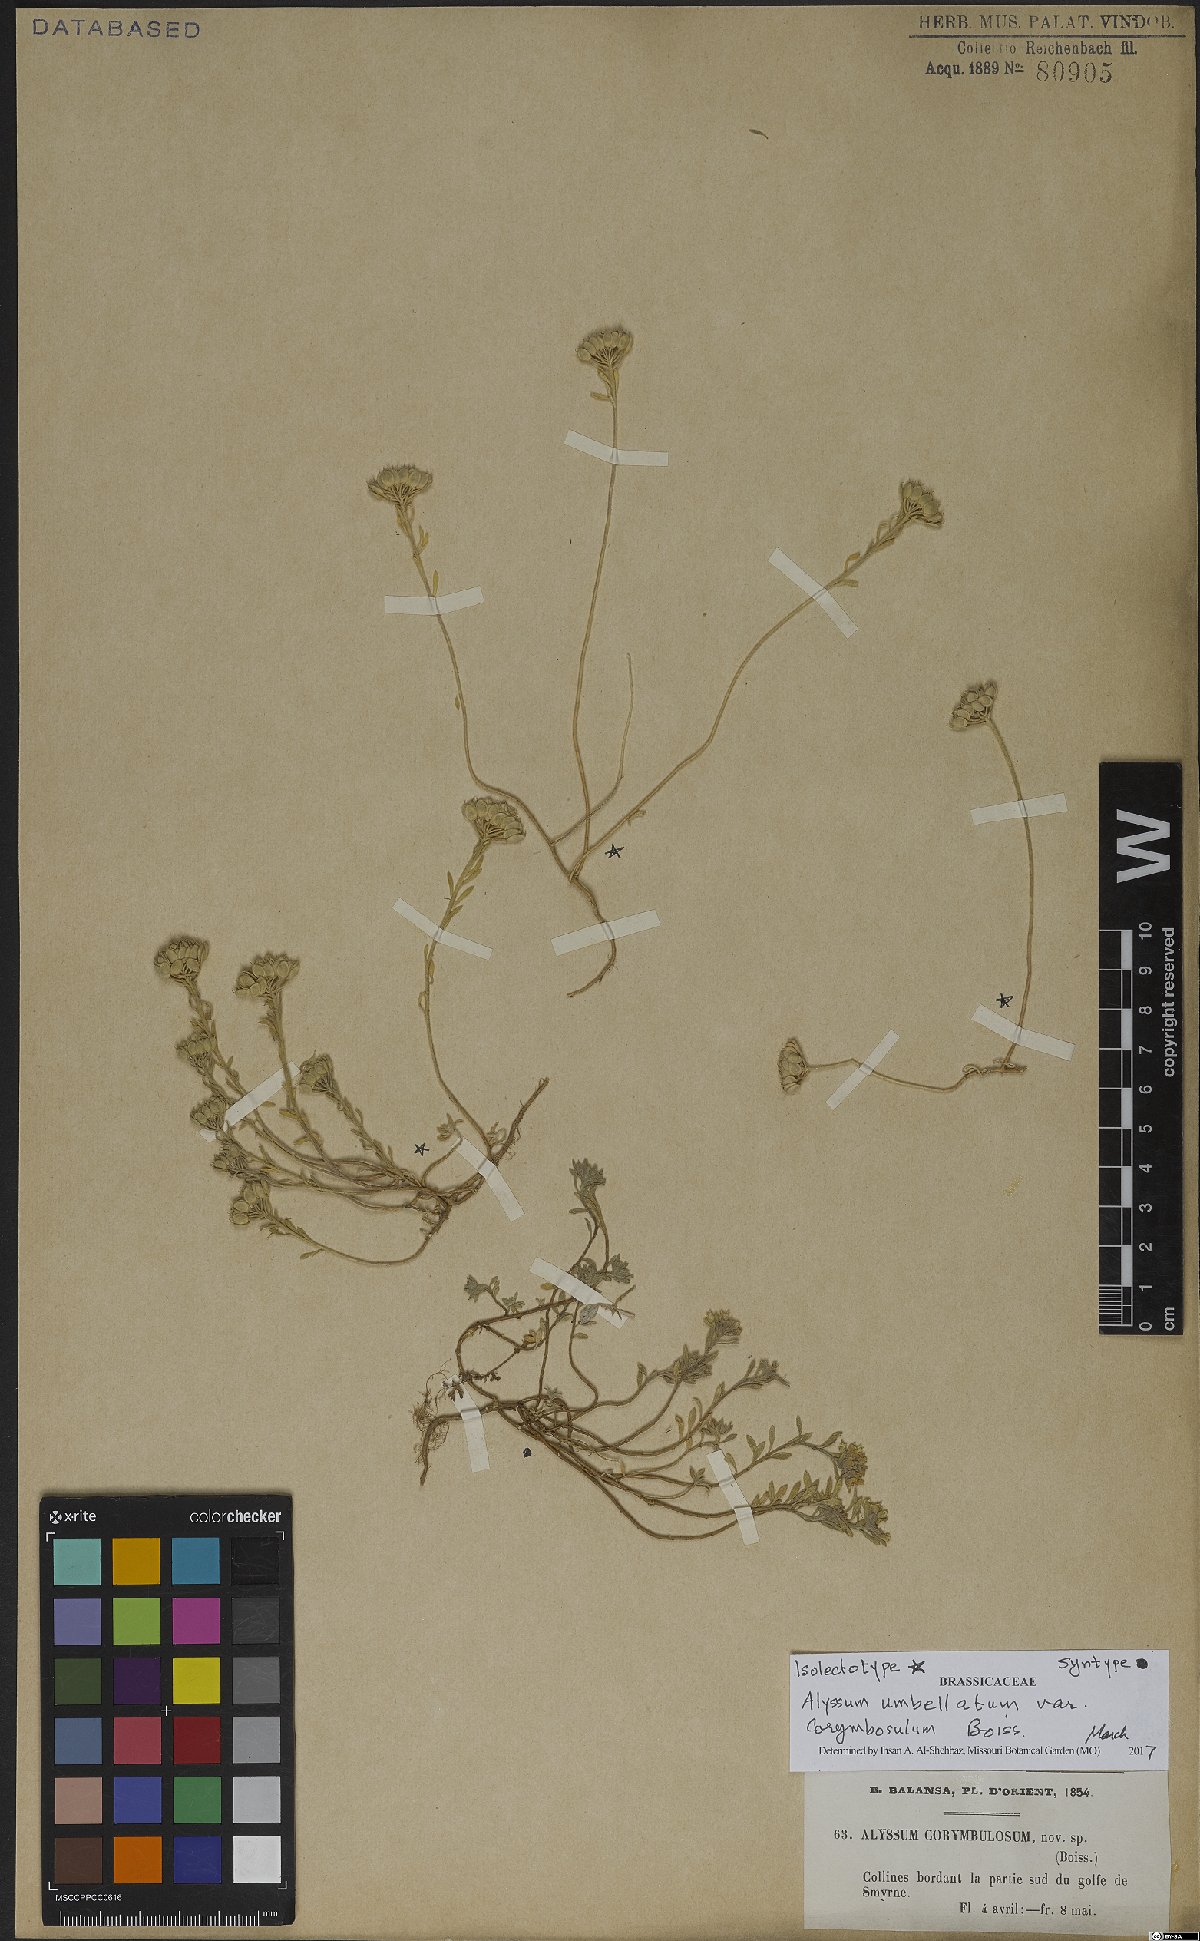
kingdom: Plantae
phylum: Tracheophyta
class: Magnoliopsida
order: Brassicales
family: Brassicaceae
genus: Alyssum
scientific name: Alyssum umbellatum
